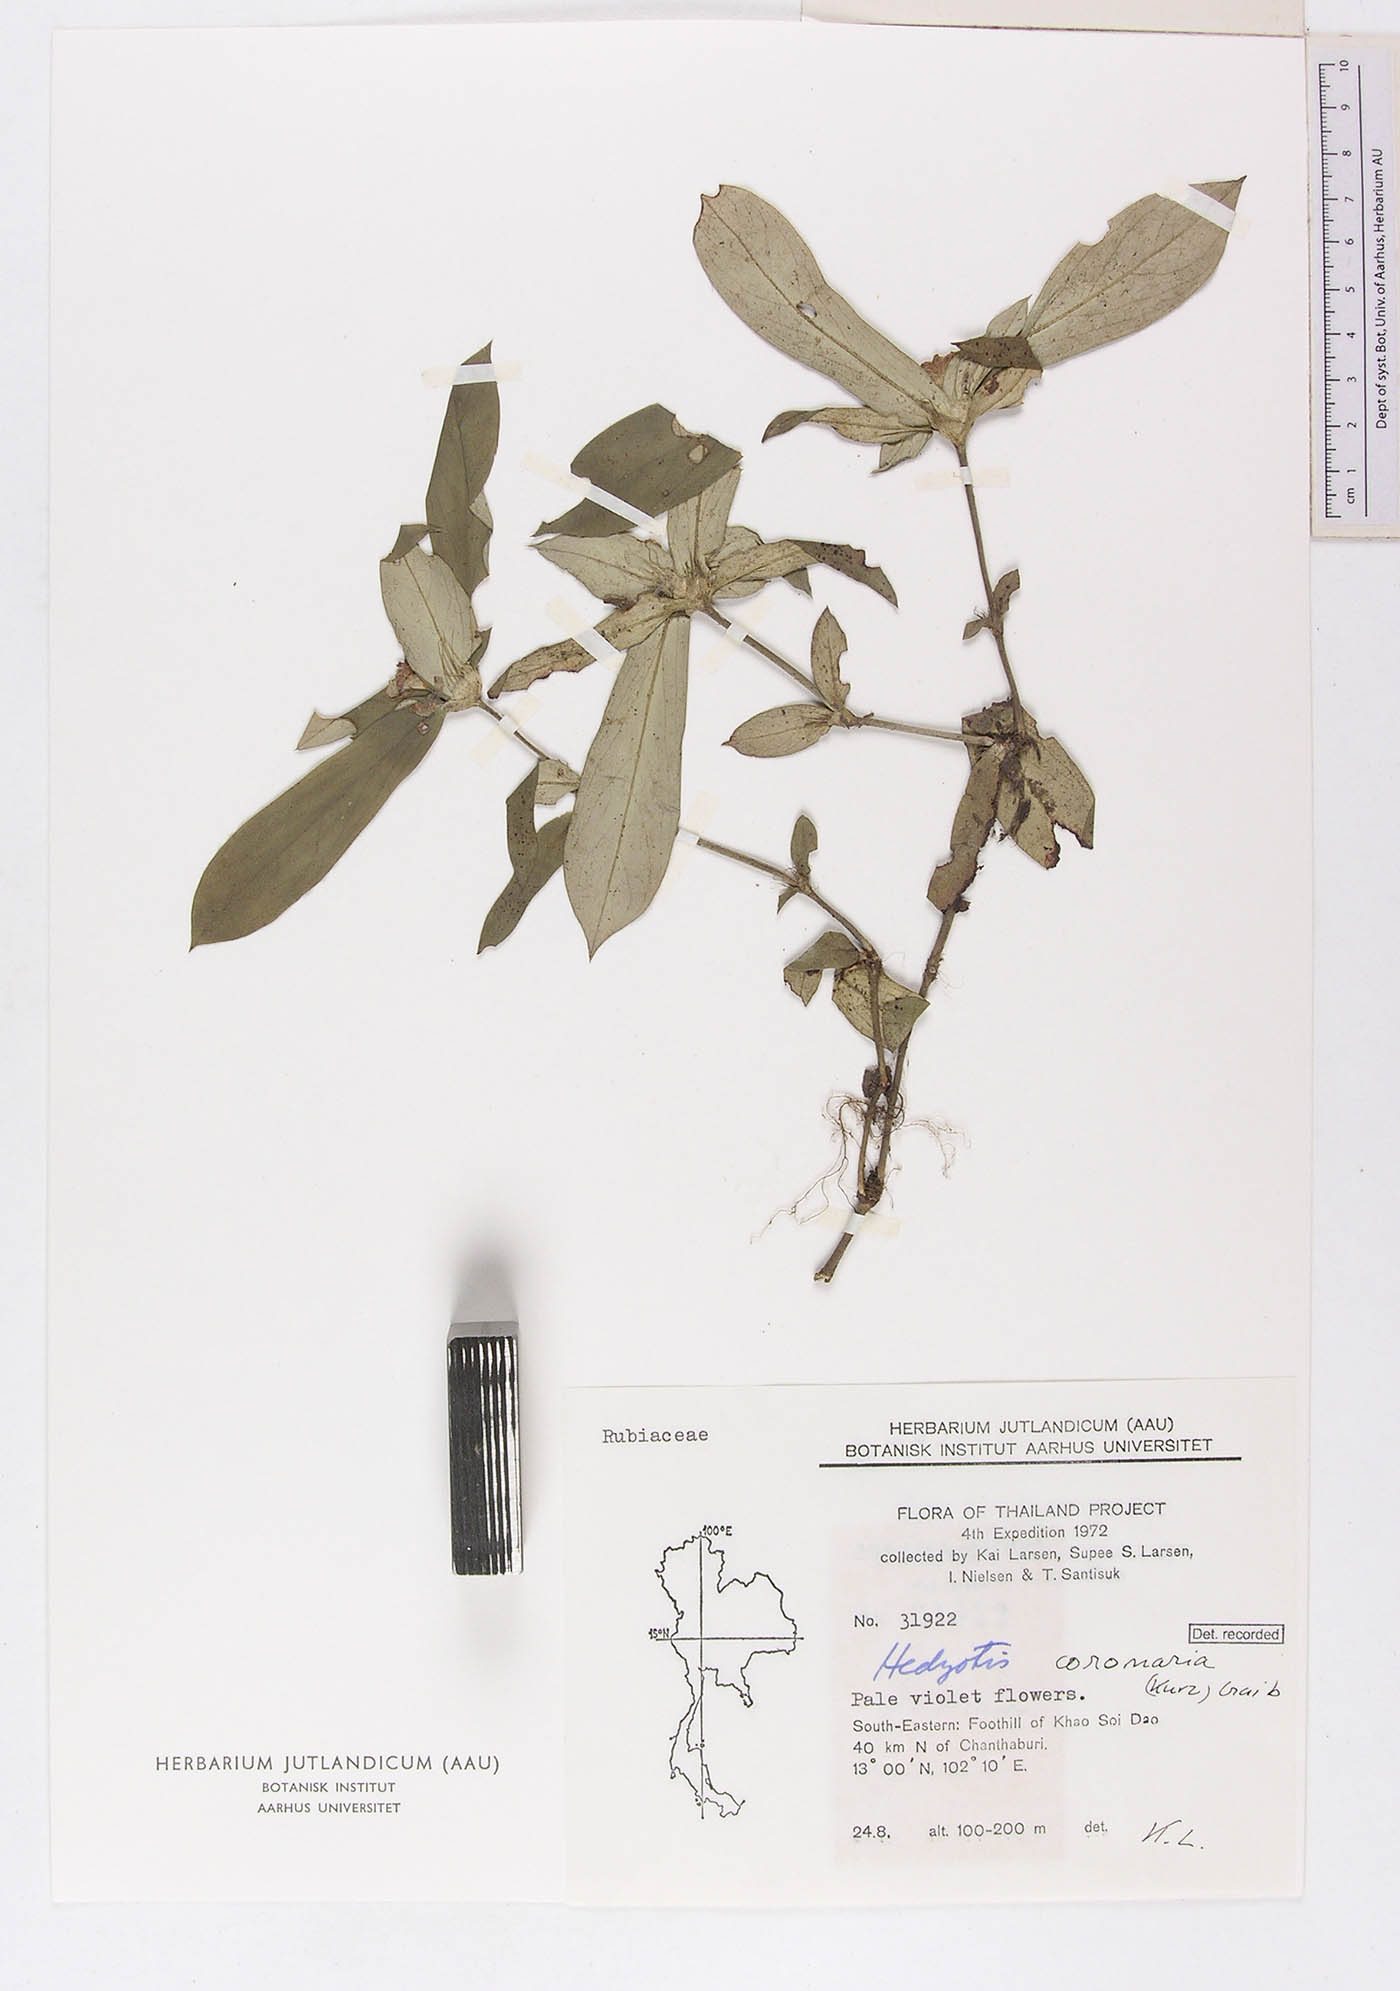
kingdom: Plantae
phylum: Tracheophyta
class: Magnoliopsida
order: Gentianales
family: Rubiaceae
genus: Involucrella
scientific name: Involucrella coronaria
